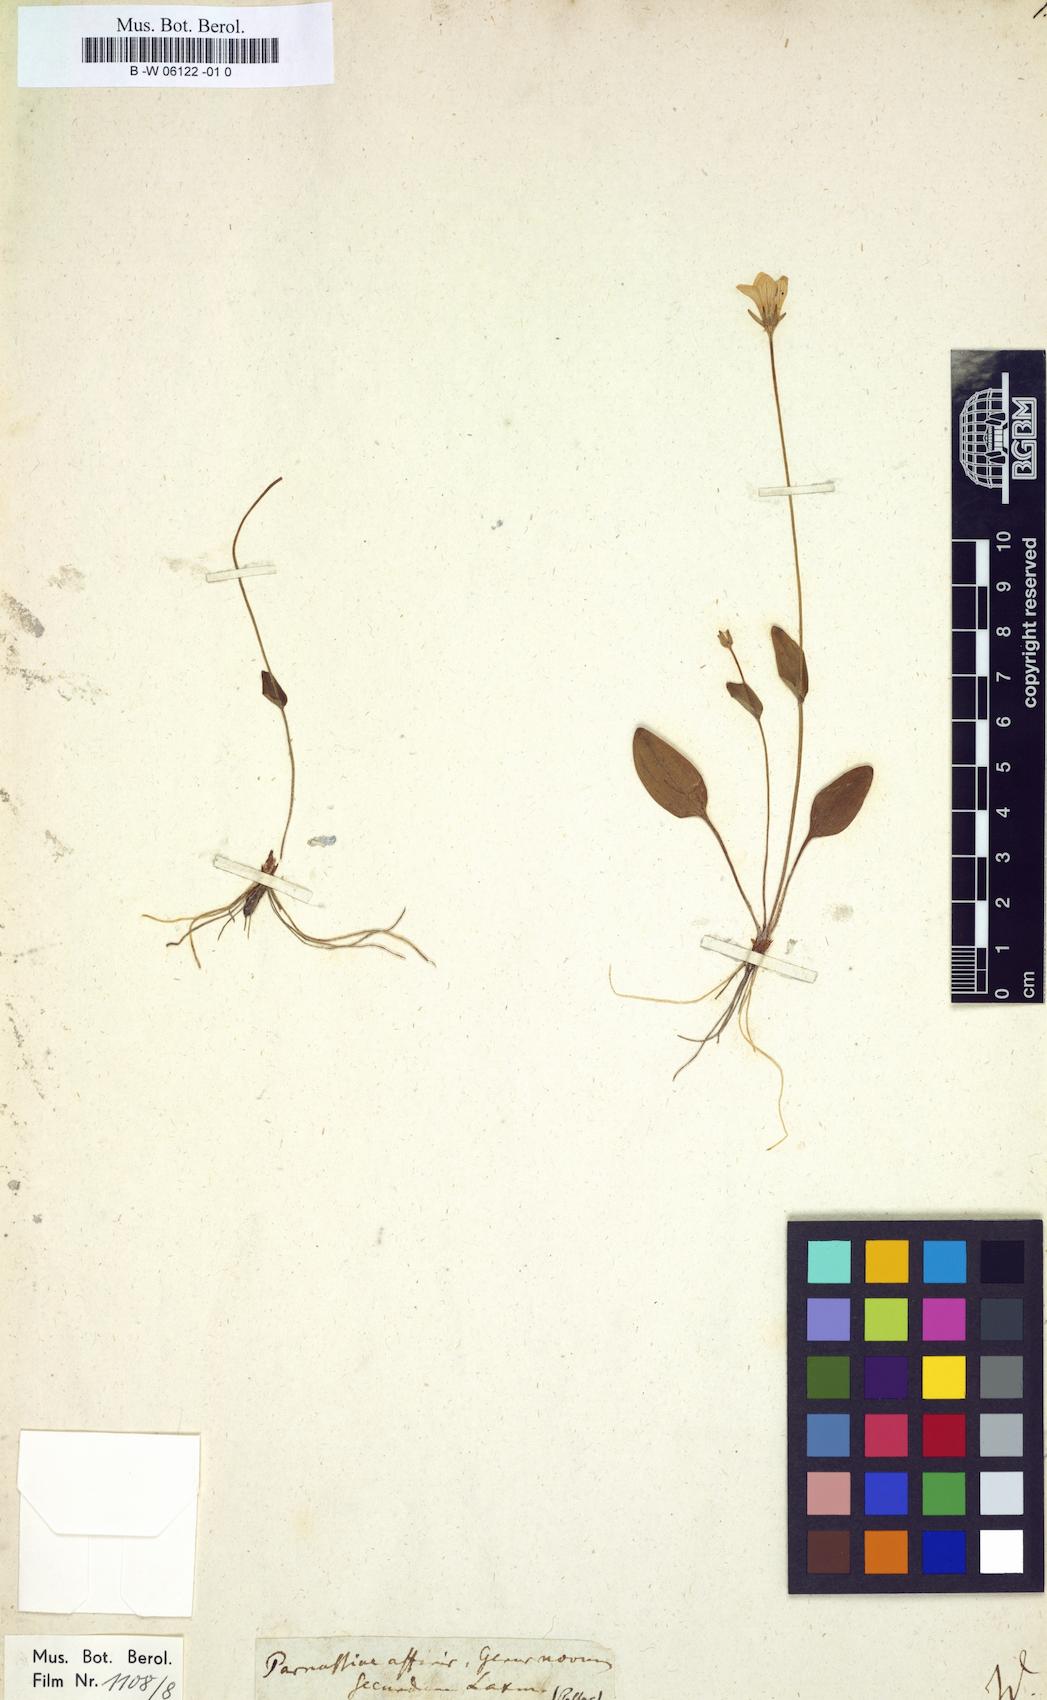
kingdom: Plantae
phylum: Tracheophyta
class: Magnoliopsida
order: Celastrales
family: Parnassiaceae
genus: Parnassia
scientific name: Parnassia laxmannii
